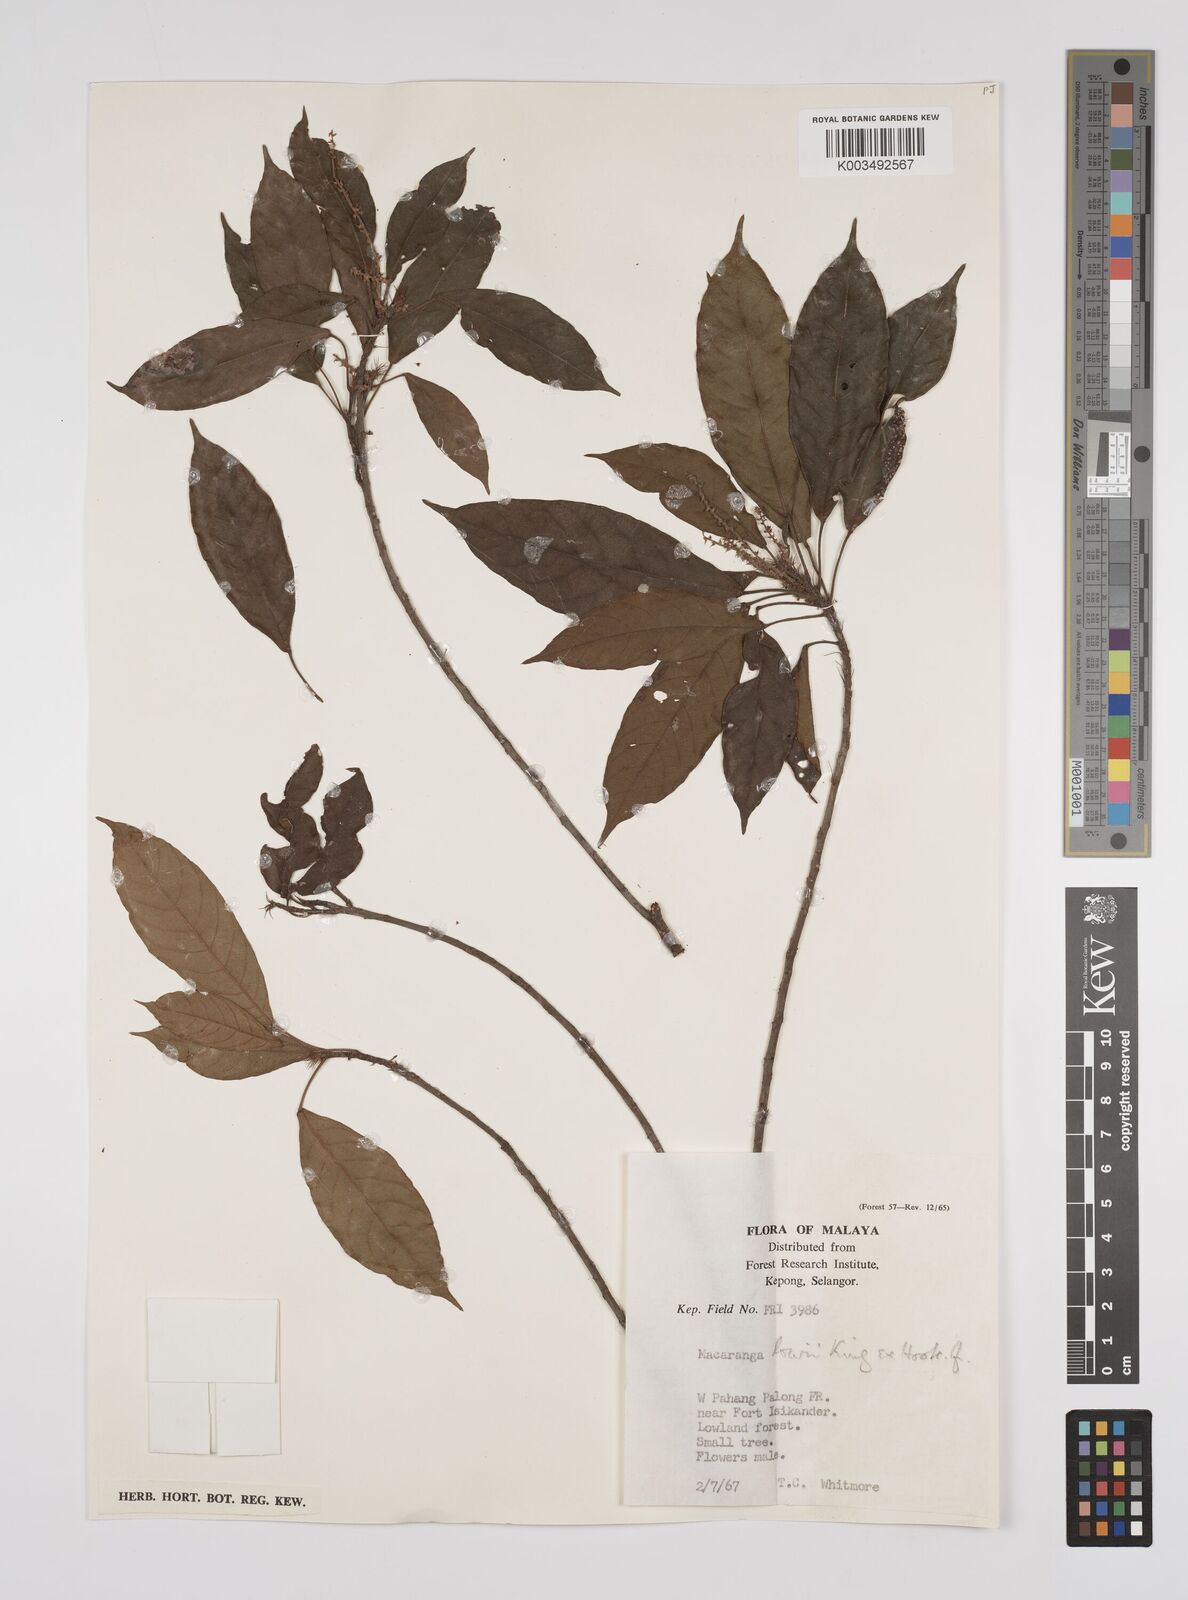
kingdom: Plantae
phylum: Tracheophyta
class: Magnoliopsida
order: Malpighiales
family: Euphorbiaceae
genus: Macaranga
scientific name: Macaranga lowii
